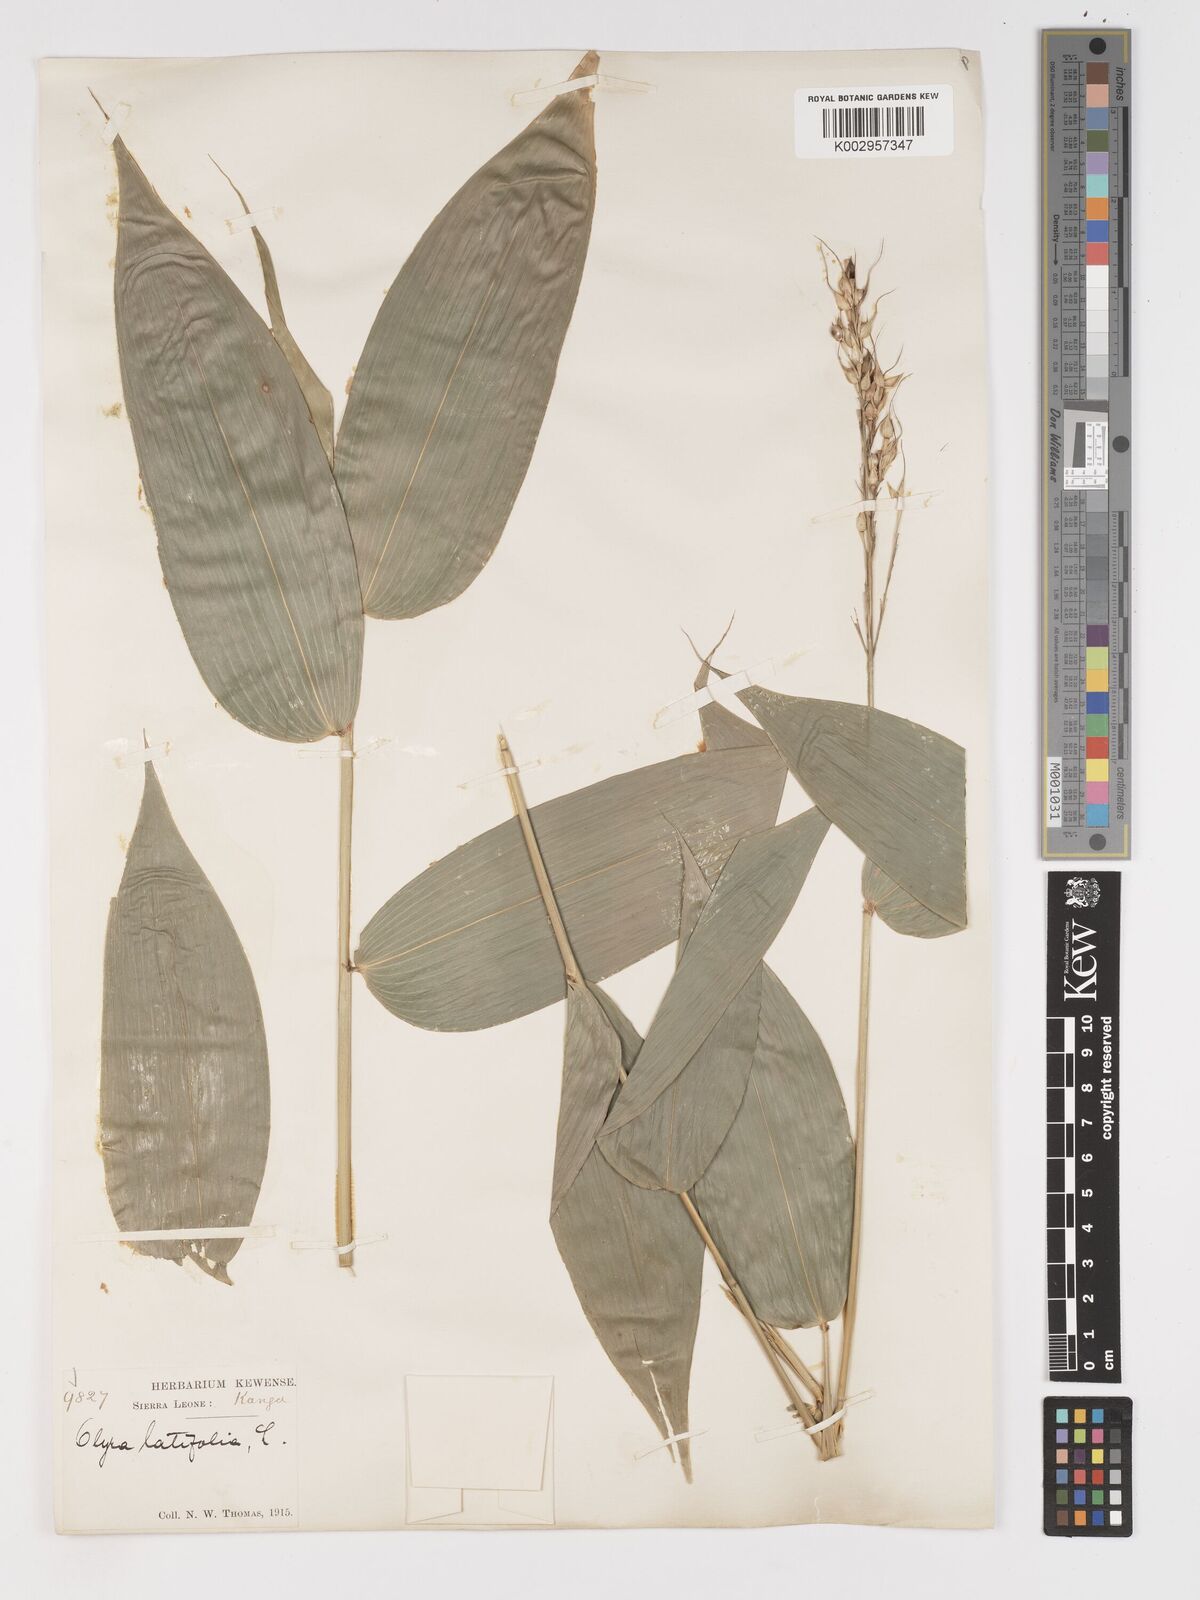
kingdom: Plantae
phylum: Tracheophyta
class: Liliopsida
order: Poales
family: Poaceae
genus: Olyra
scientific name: Olyra latifolia
